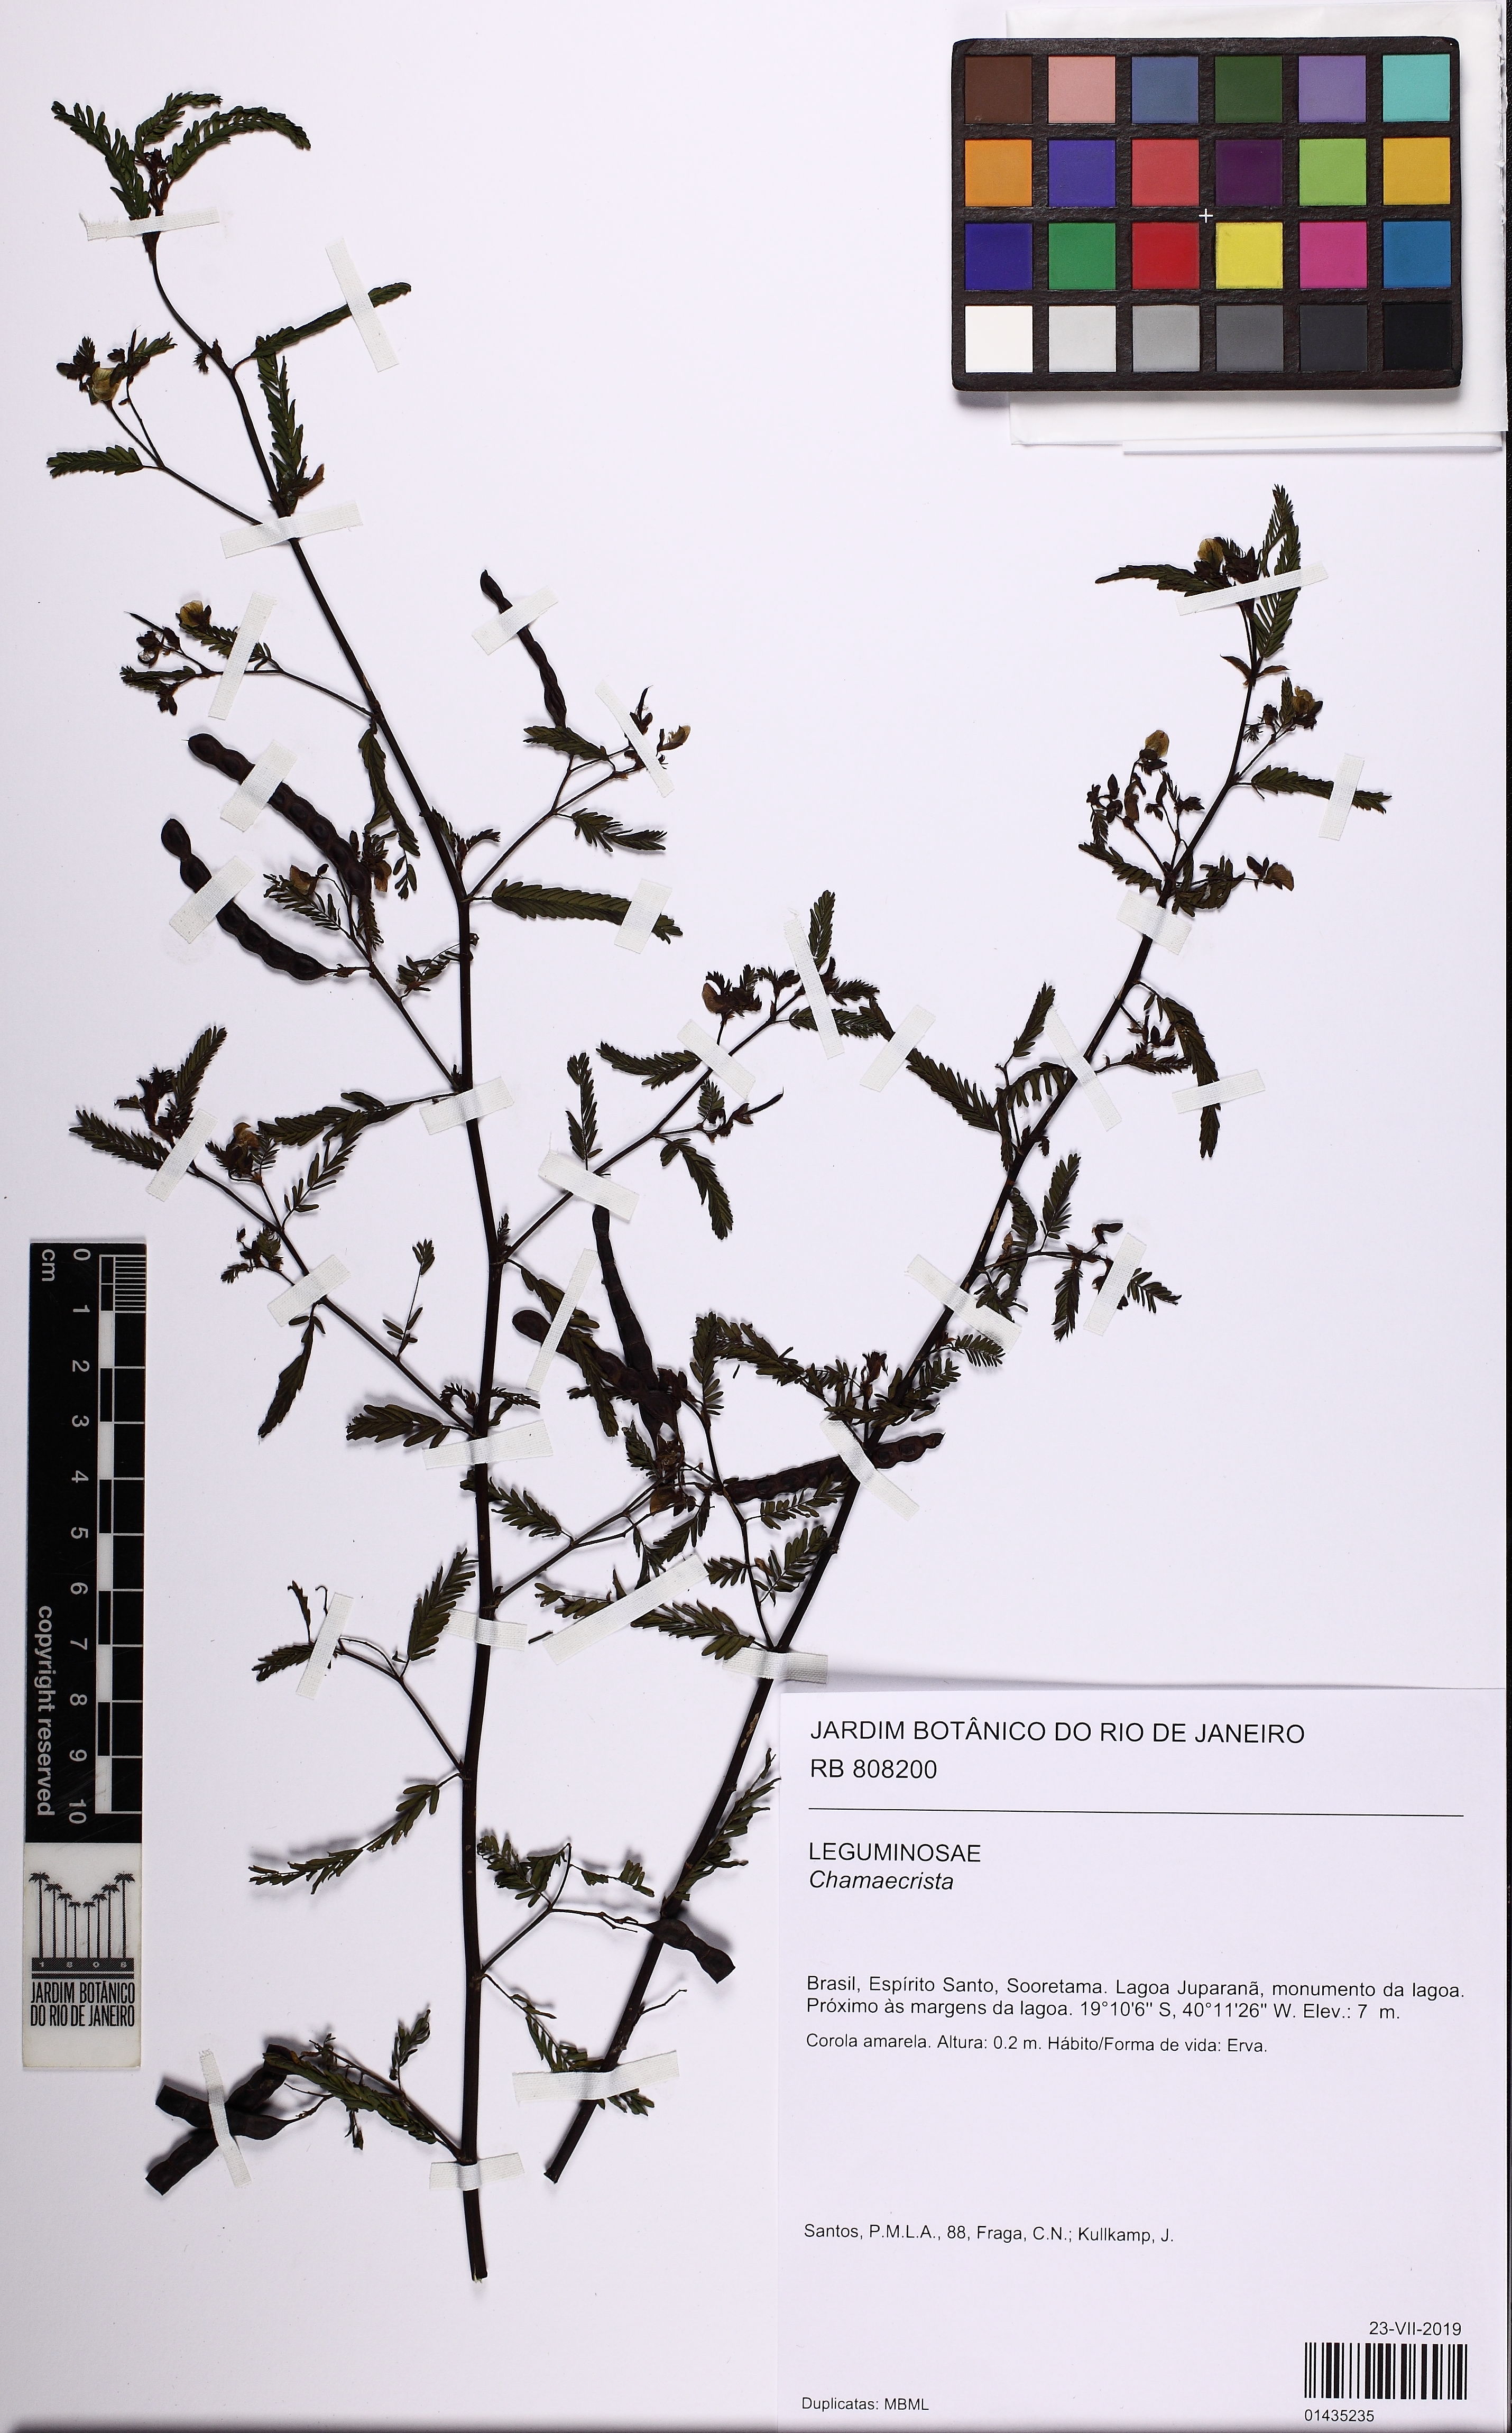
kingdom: Plantae
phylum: Tracheophyta
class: Magnoliopsida
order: Fabales
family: Fabaceae
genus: Chamaecrista
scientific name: Chamaecrista
